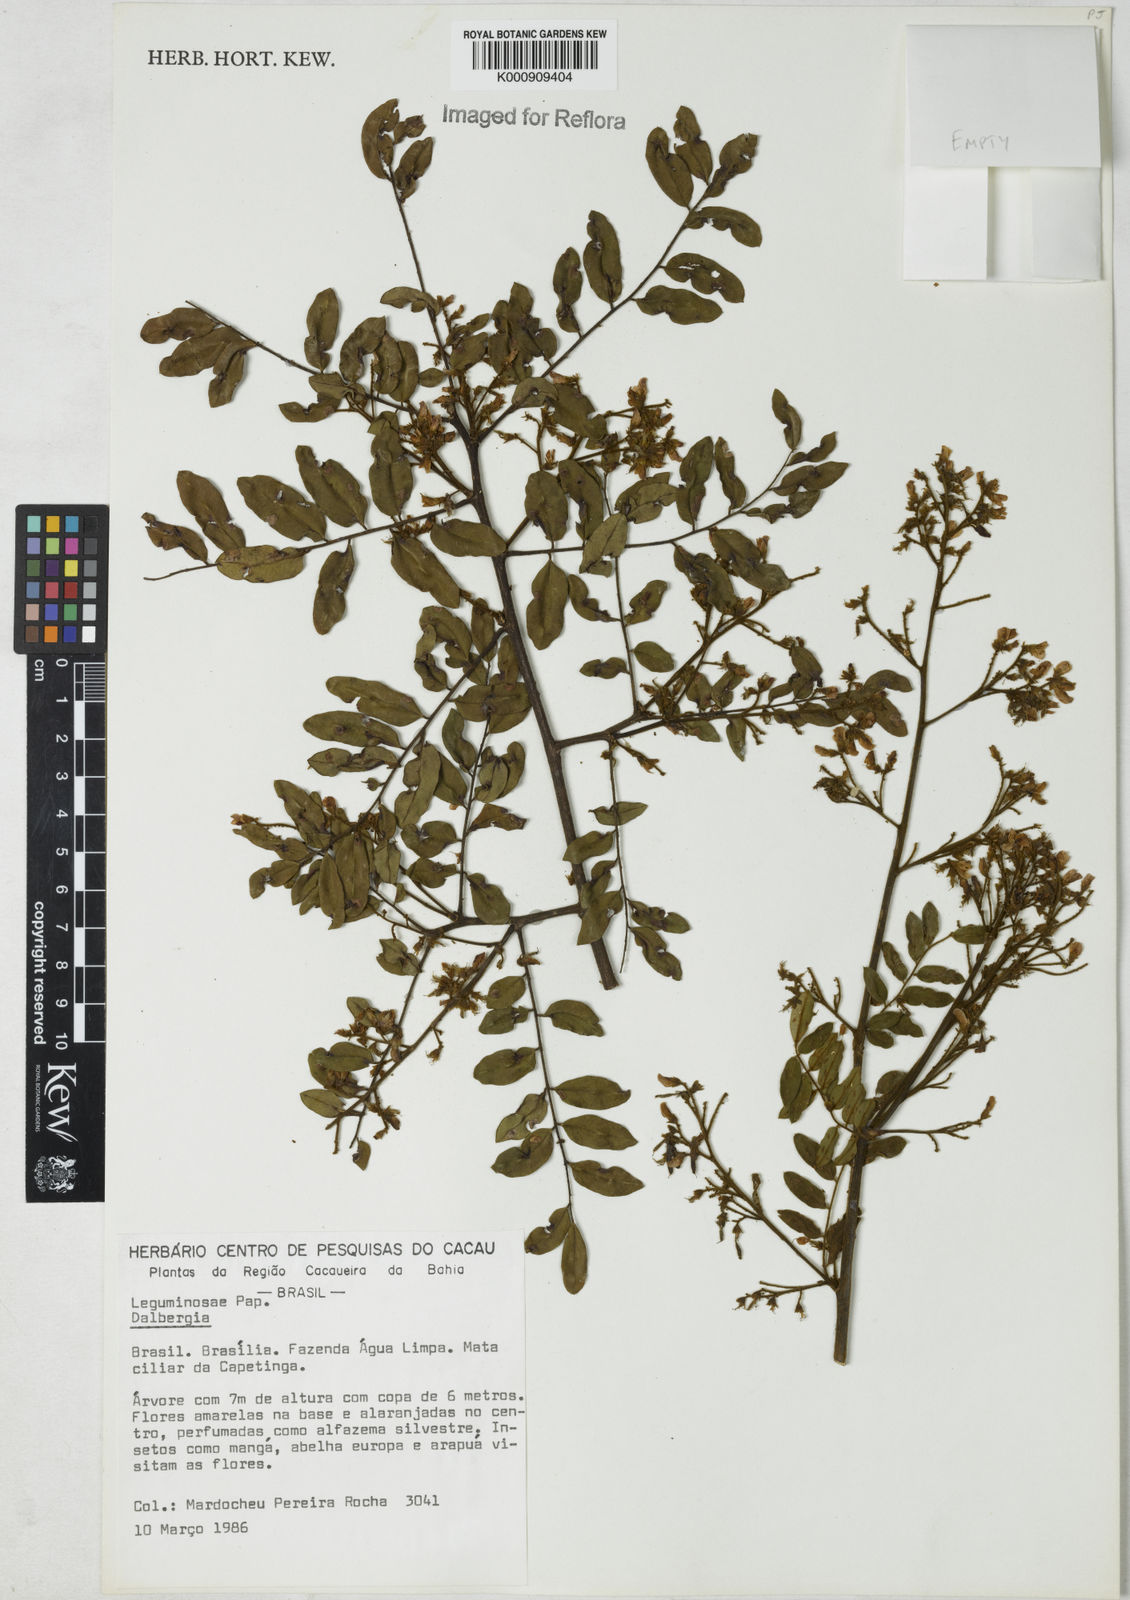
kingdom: Plantae
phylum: Tracheophyta
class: Magnoliopsida
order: Fabales
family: Fabaceae
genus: Dalbergia
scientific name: Dalbergia
